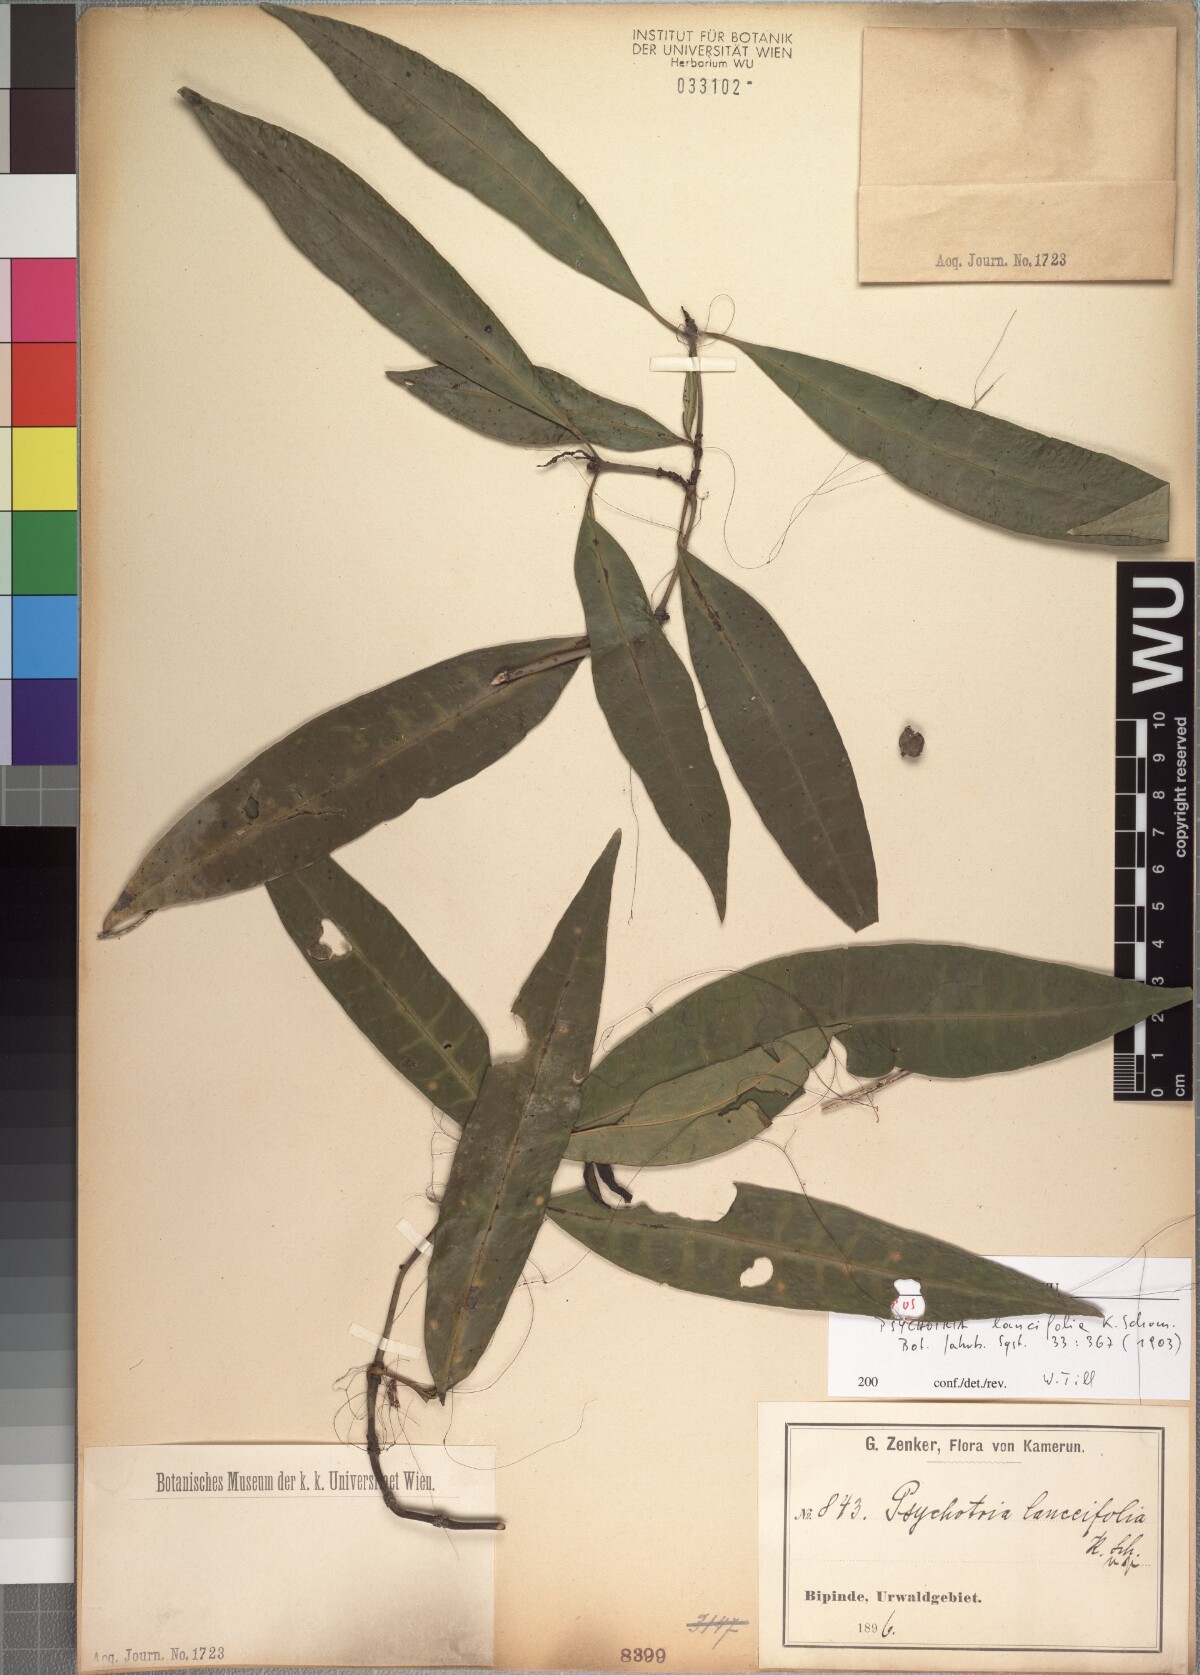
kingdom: Plantae
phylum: Tracheophyta
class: Magnoliopsida
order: Gentianales
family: Rubiaceae
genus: Psychotria
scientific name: Psychotria lanceifolia
